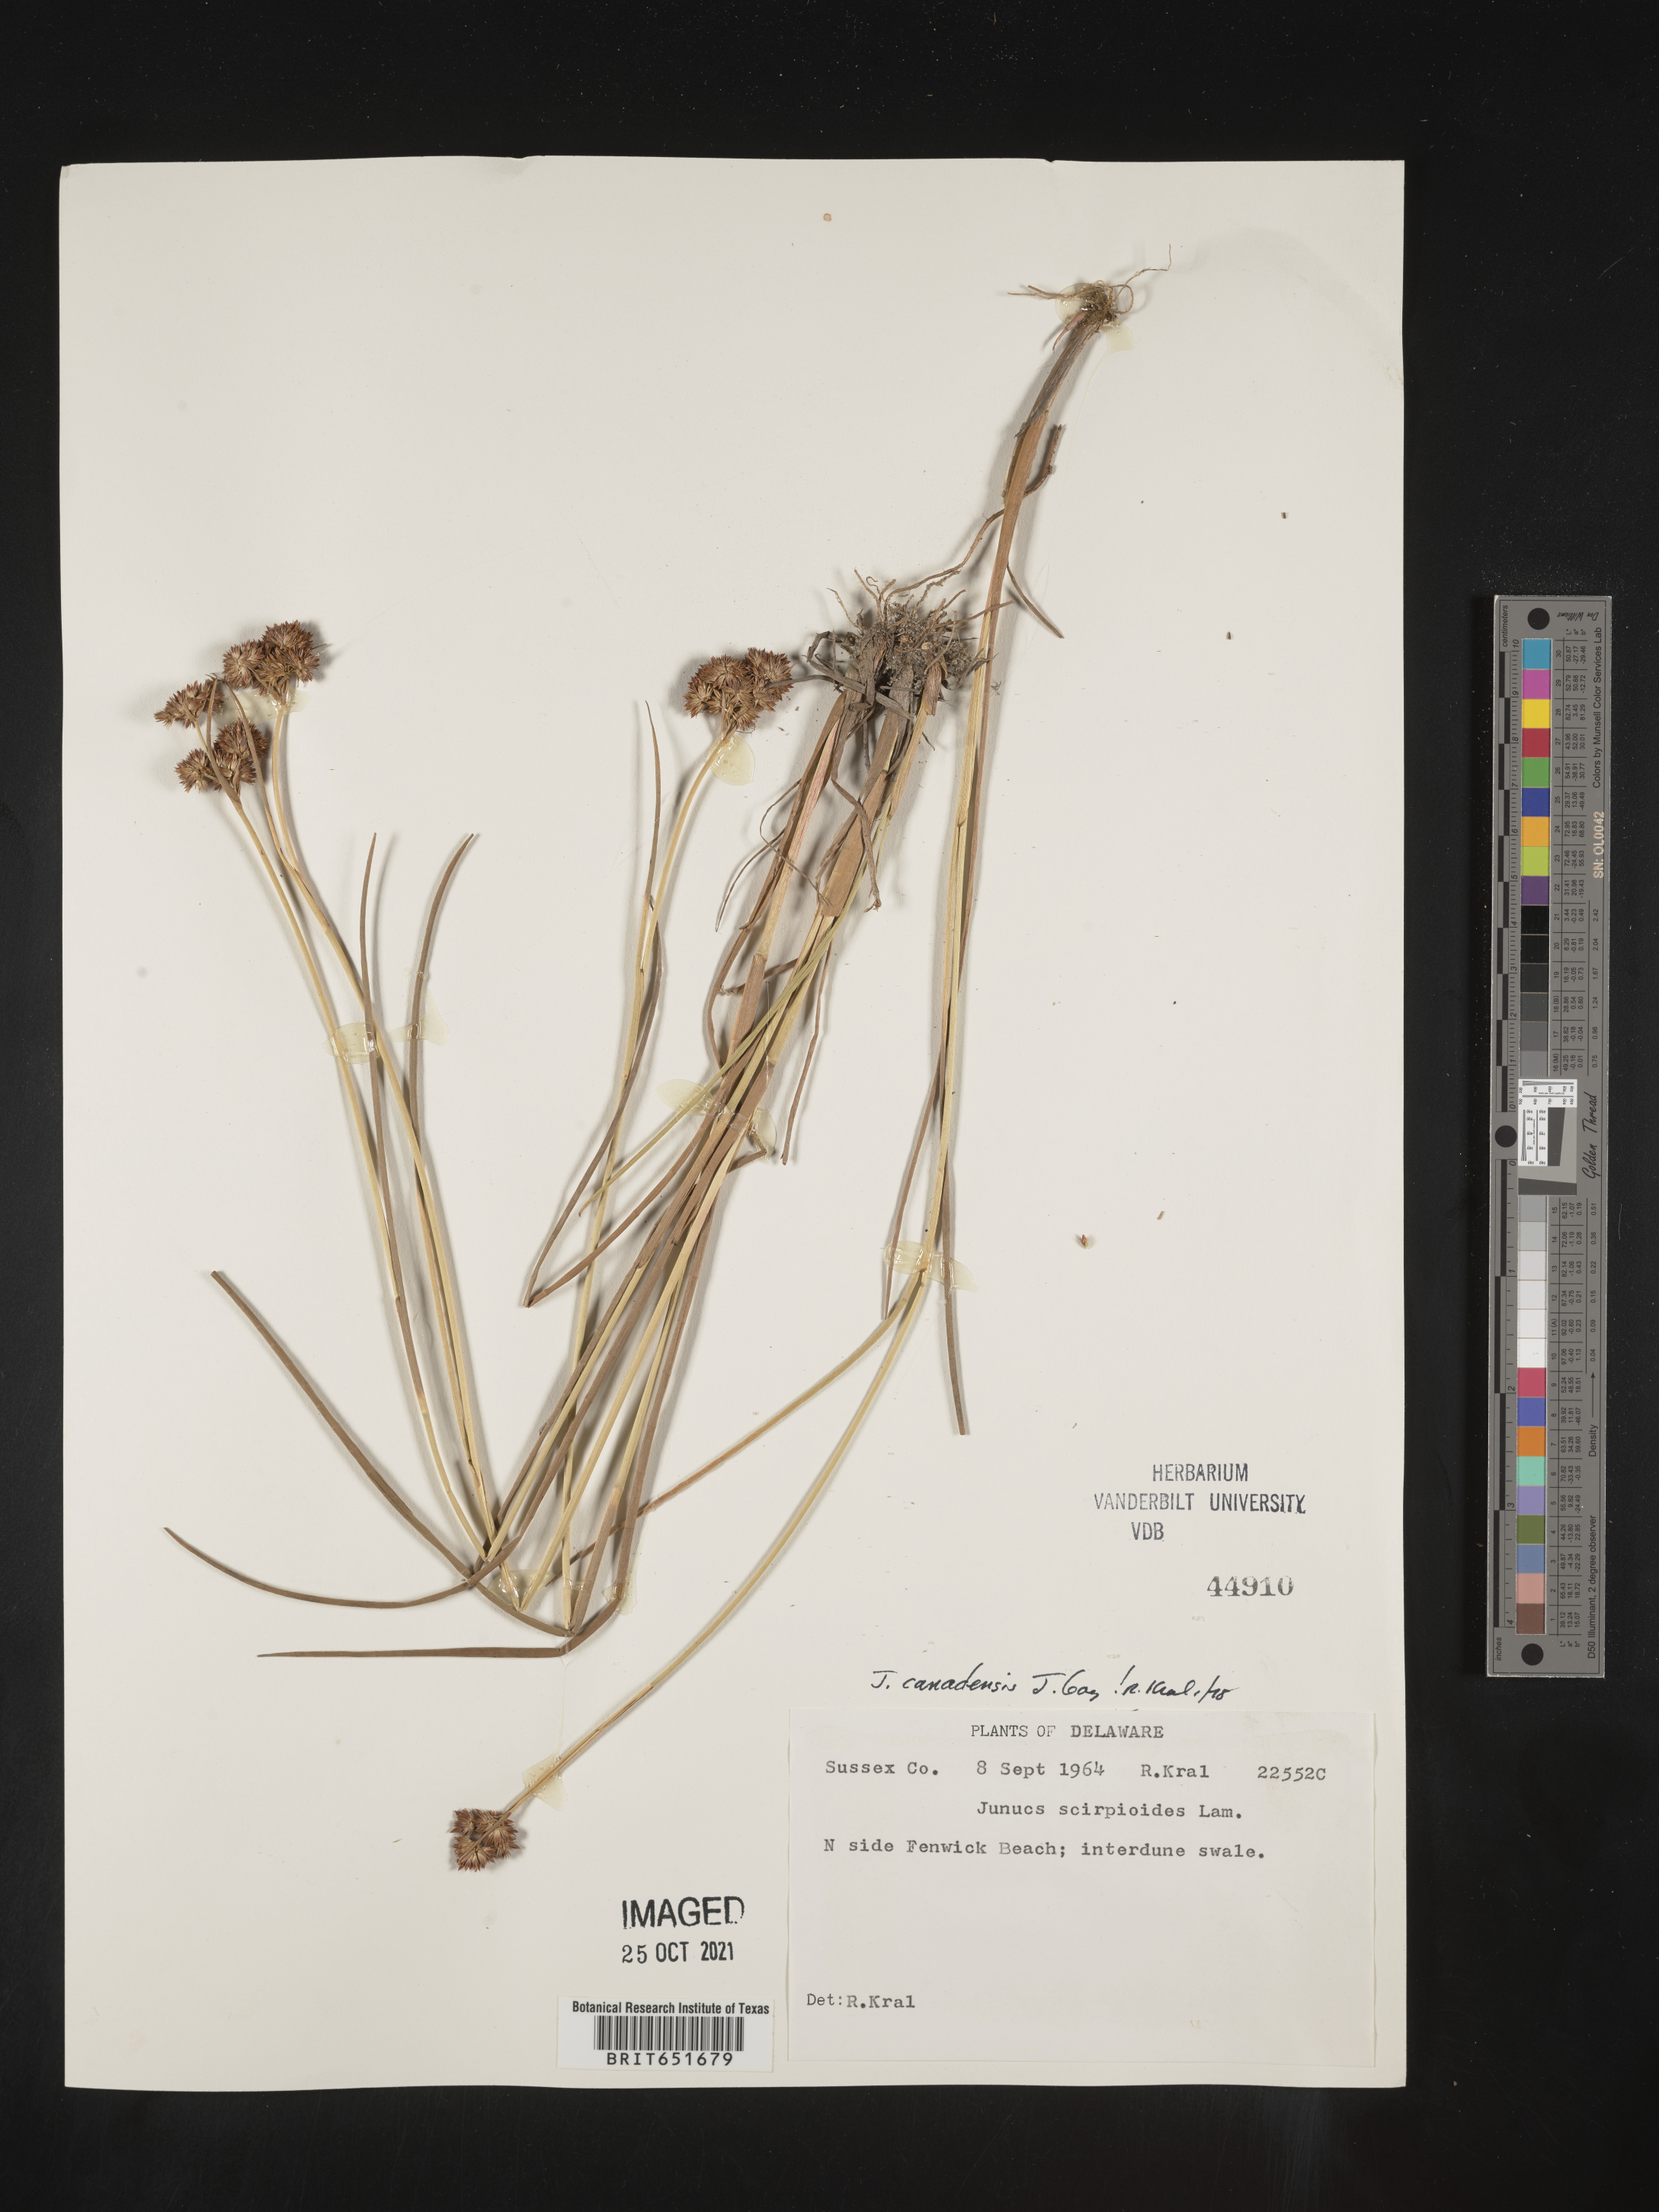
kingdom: Plantae
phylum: Tracheophyta
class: Liliopsida
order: Poales
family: Juncaceae
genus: Juncus
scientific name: Juncus canadensis
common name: Canada rush
